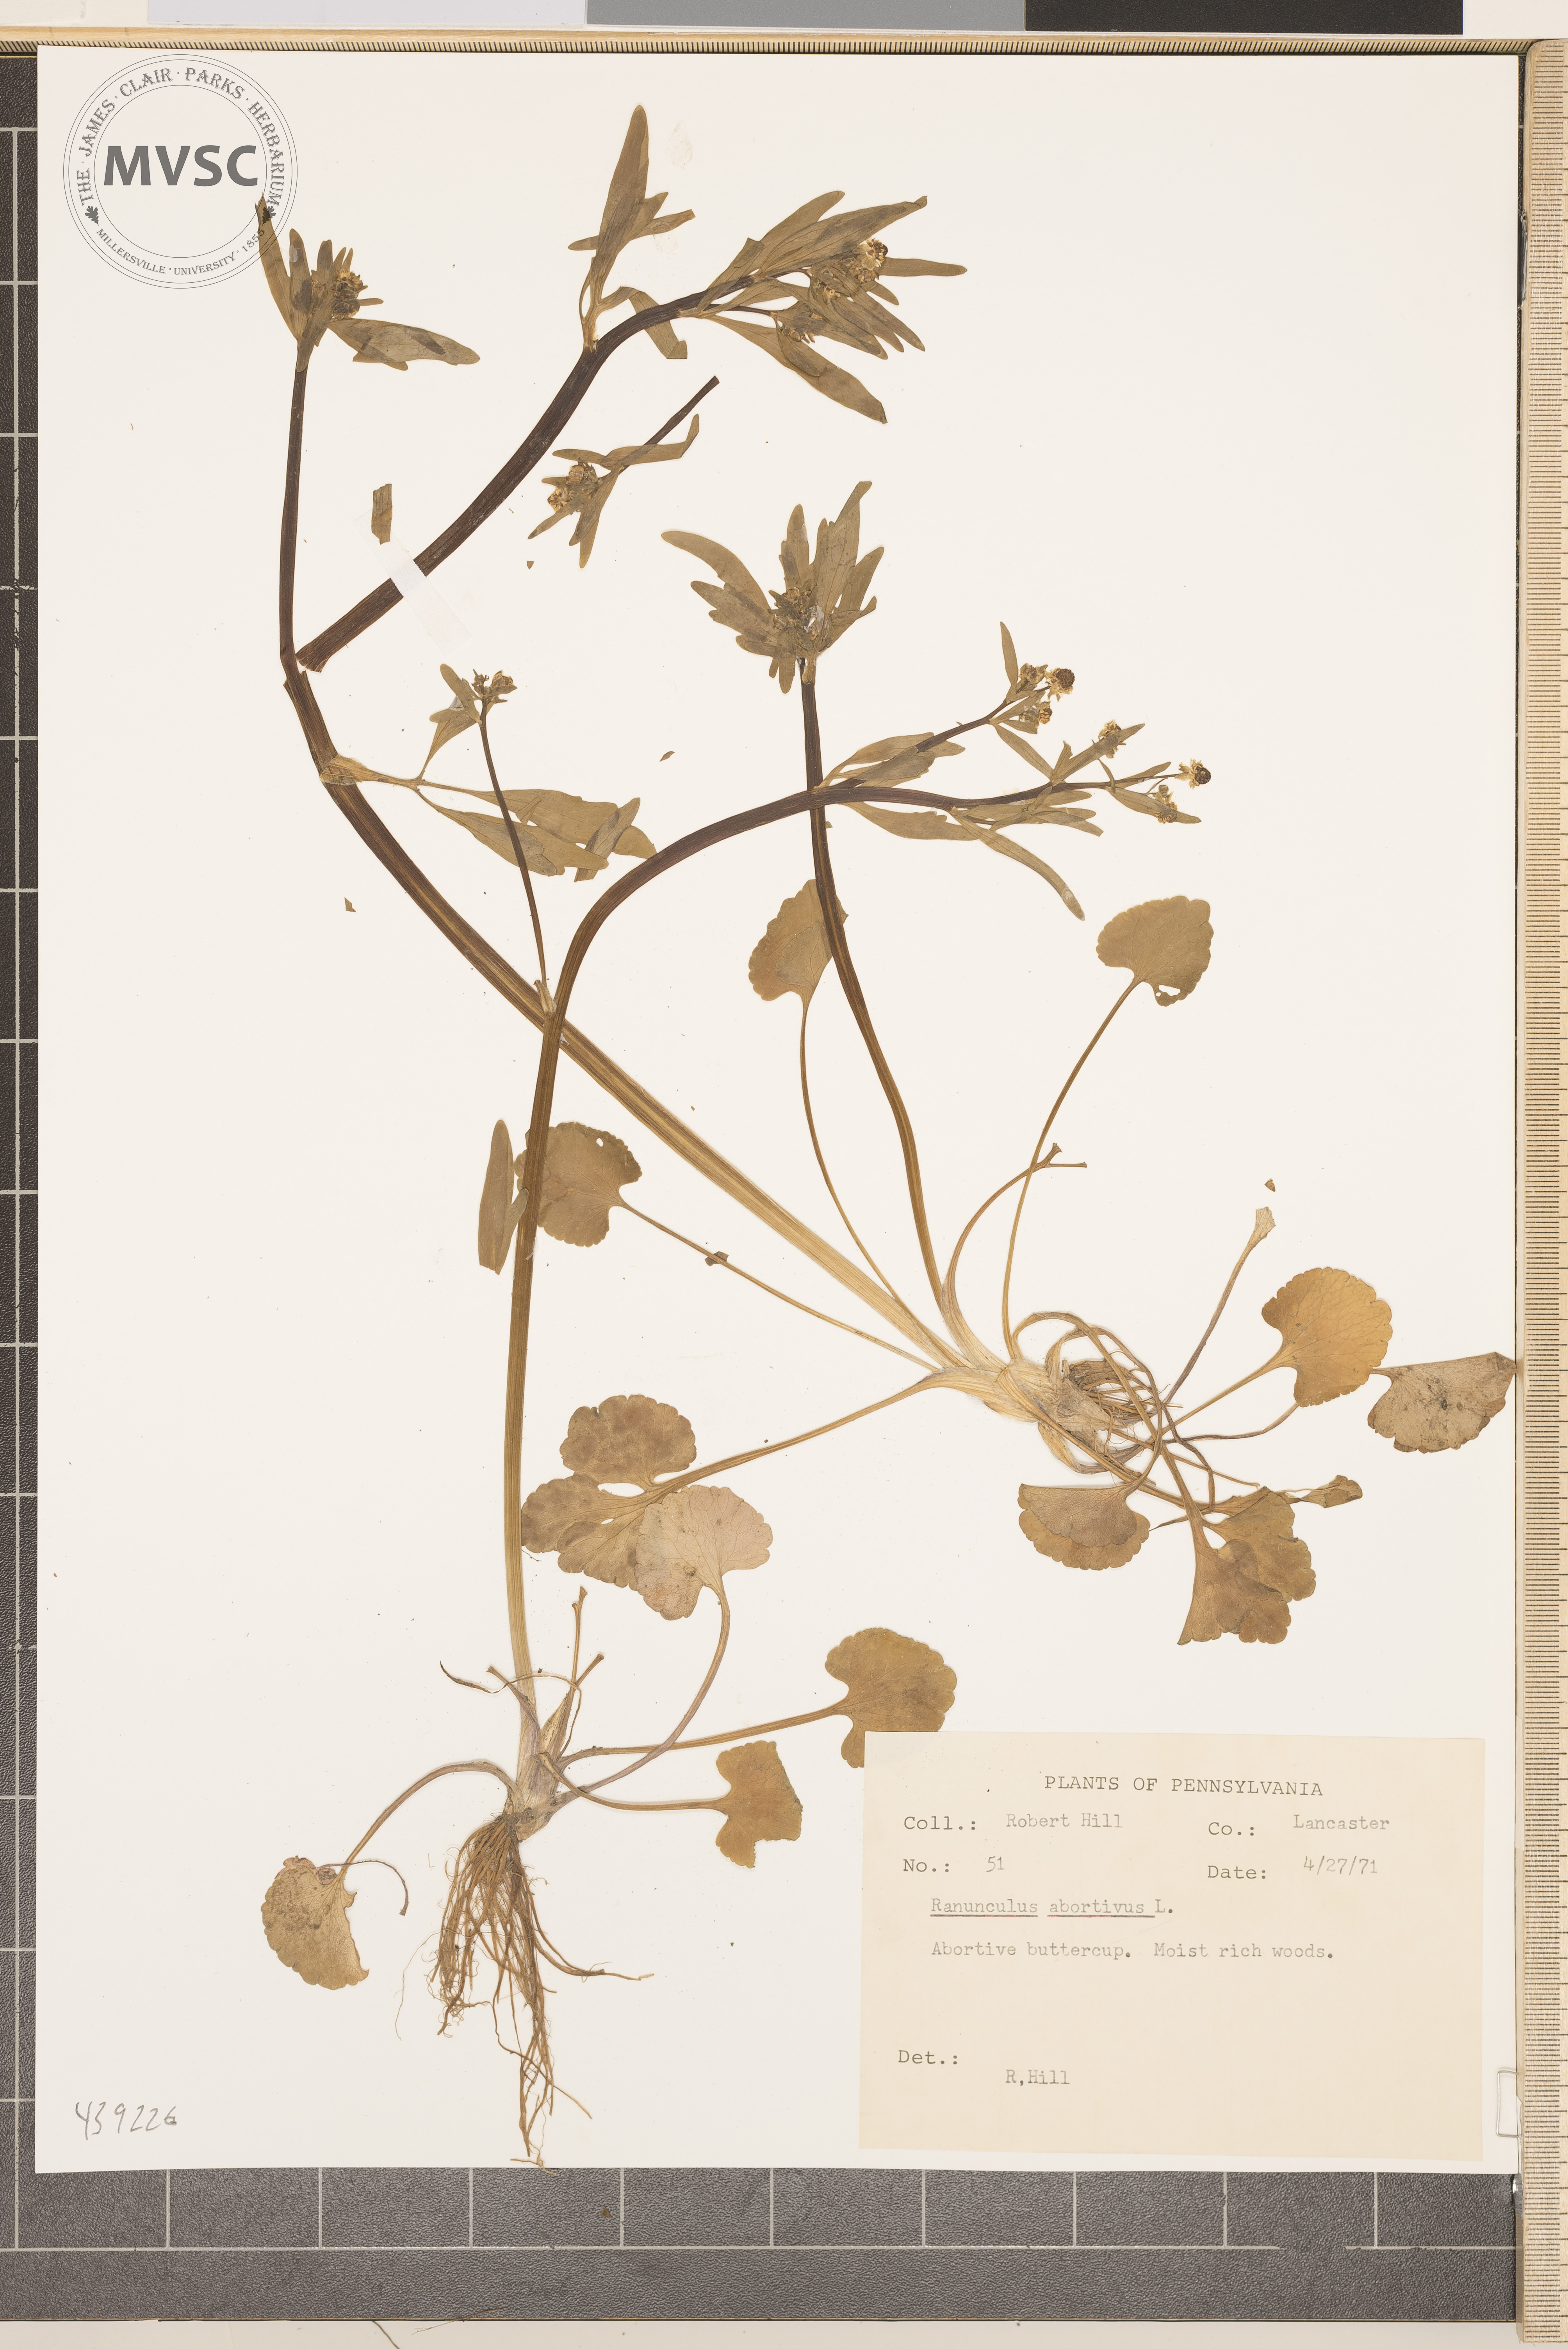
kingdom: Plantae
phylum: Tracheophyta
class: Magnoliopsida
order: Ranunculales
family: Ranunculaceae
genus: Ranunculus
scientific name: Ranunculus abortivus
